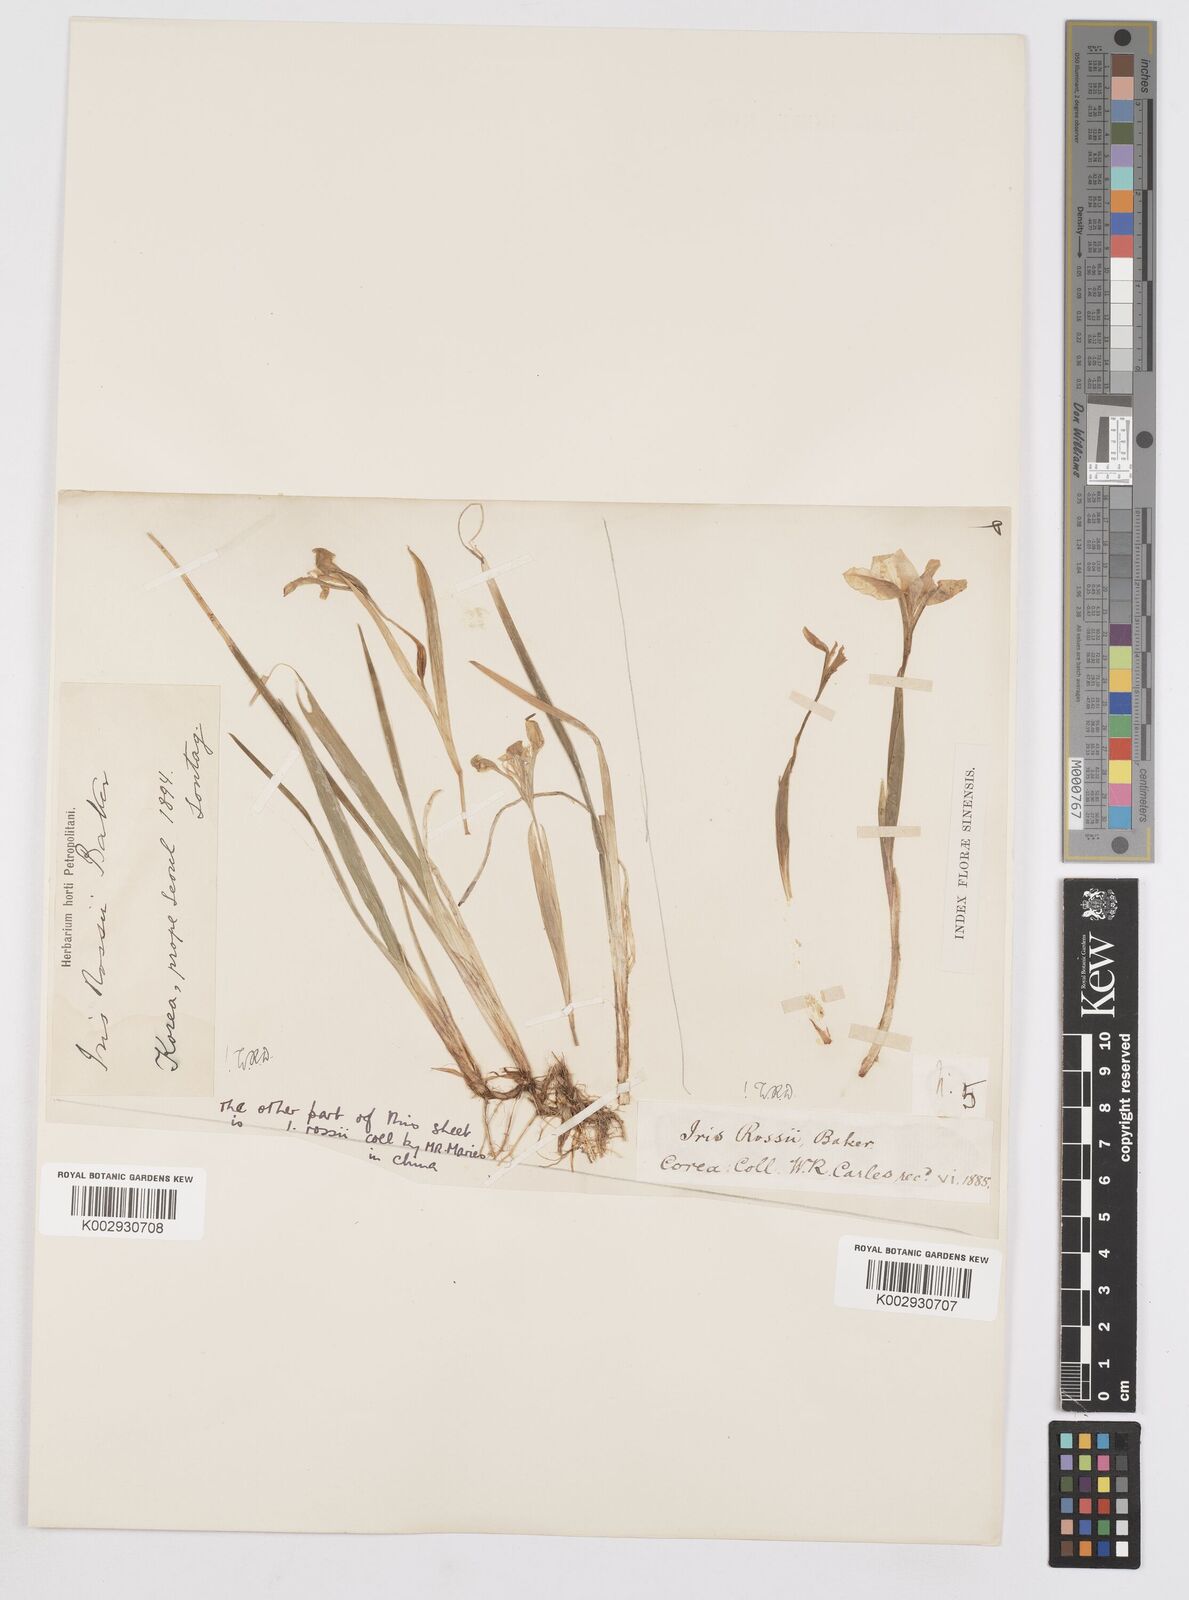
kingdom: Plantae
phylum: Tracheophyta
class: Liliopsida
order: Asparagales
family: Iridaceae
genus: Iris
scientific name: Iris rossii
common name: Long-tail iris
